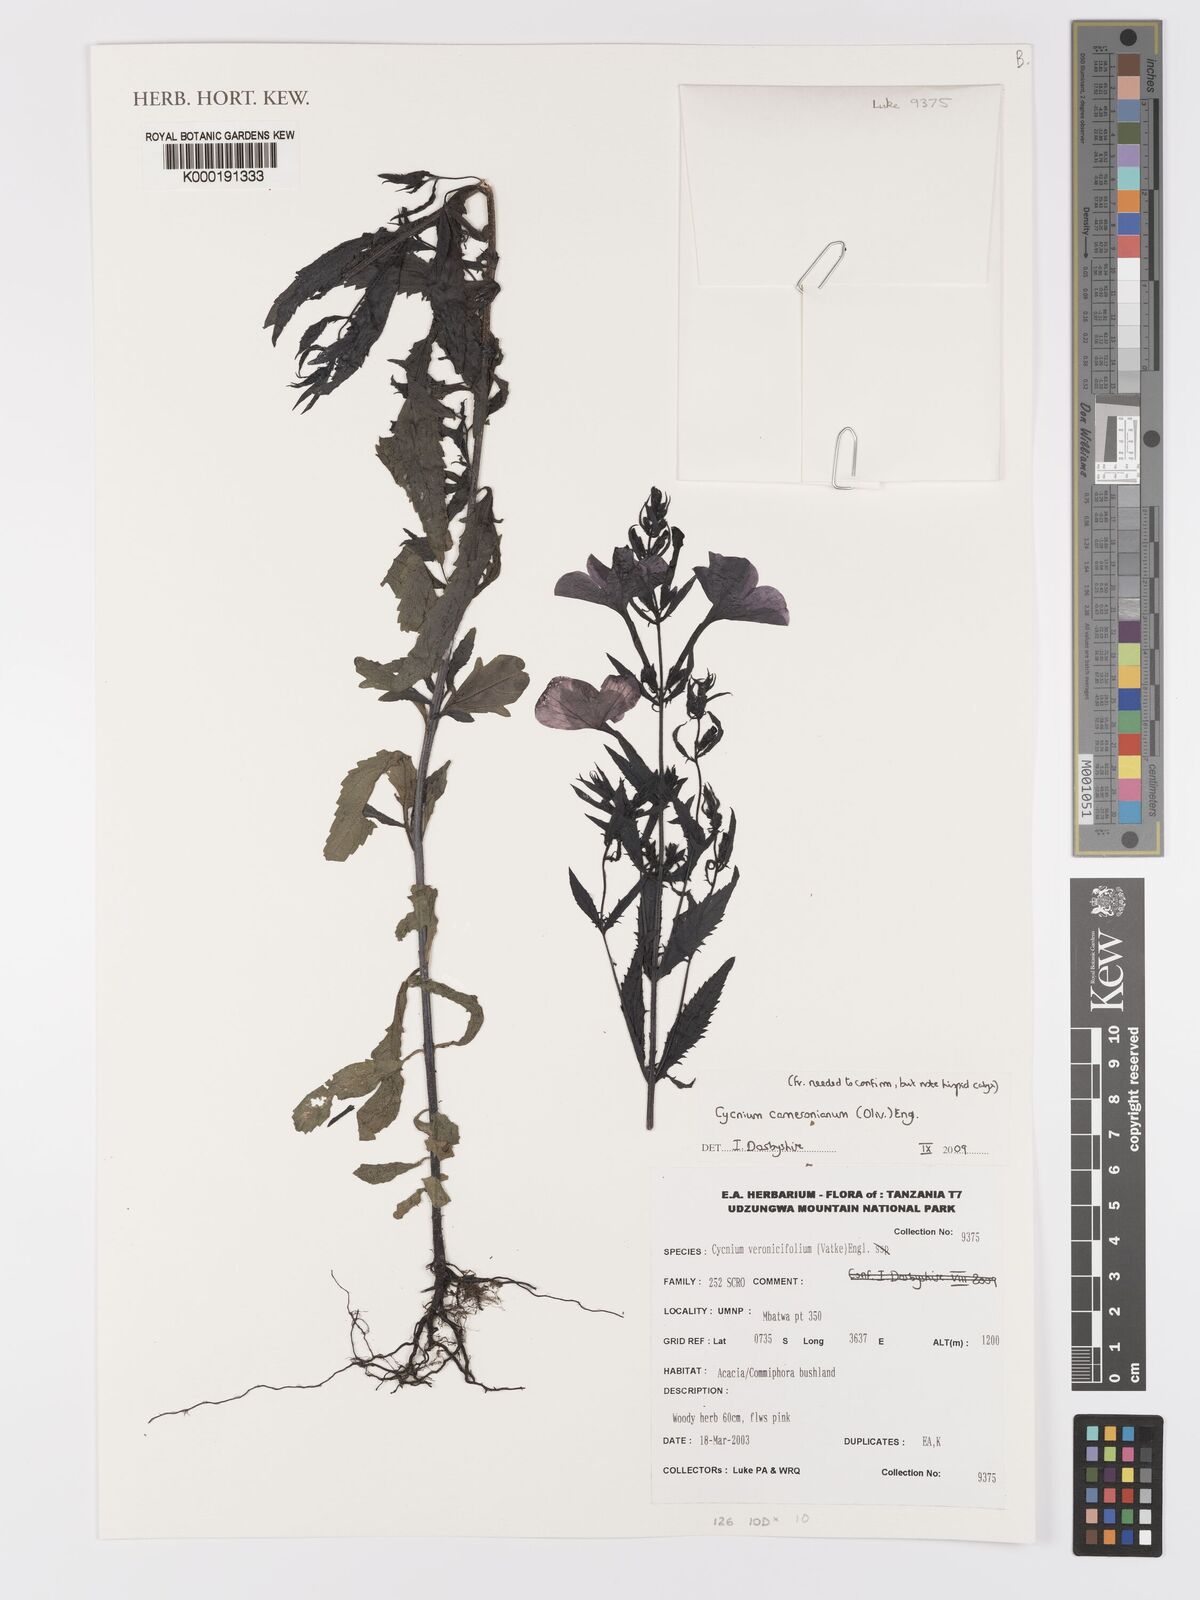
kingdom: Plantae
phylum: Tracheophyta
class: Magnoliopsida
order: Lamiales
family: Orobanchaceae
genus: Cycnium
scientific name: Cycnium cameronianum
